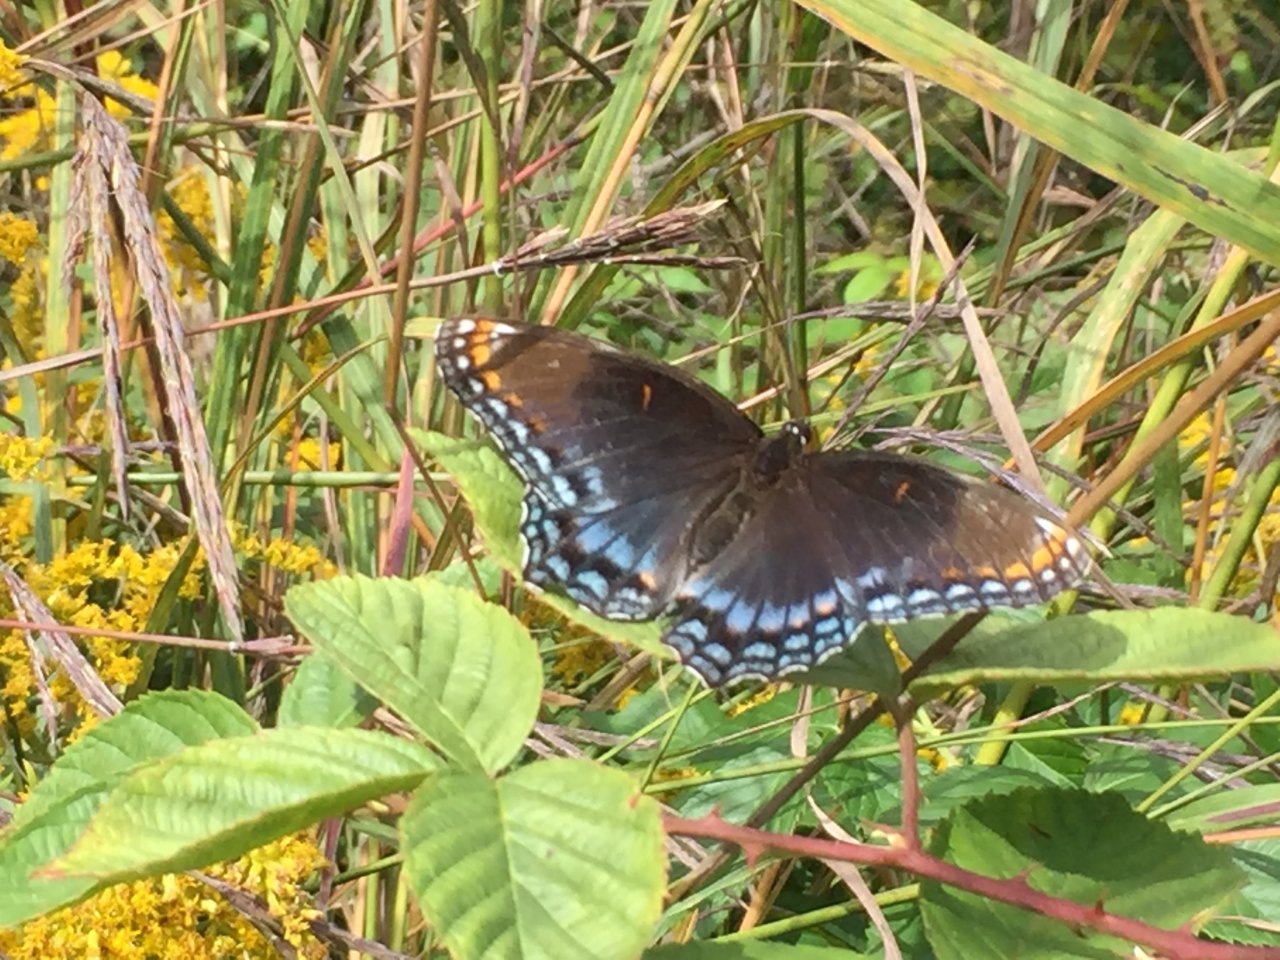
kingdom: Animalia
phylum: Arthropoda
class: Insecta
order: Lepidoptera
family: Nymphalidae
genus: Limenitis
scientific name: Limenitis astyanax
